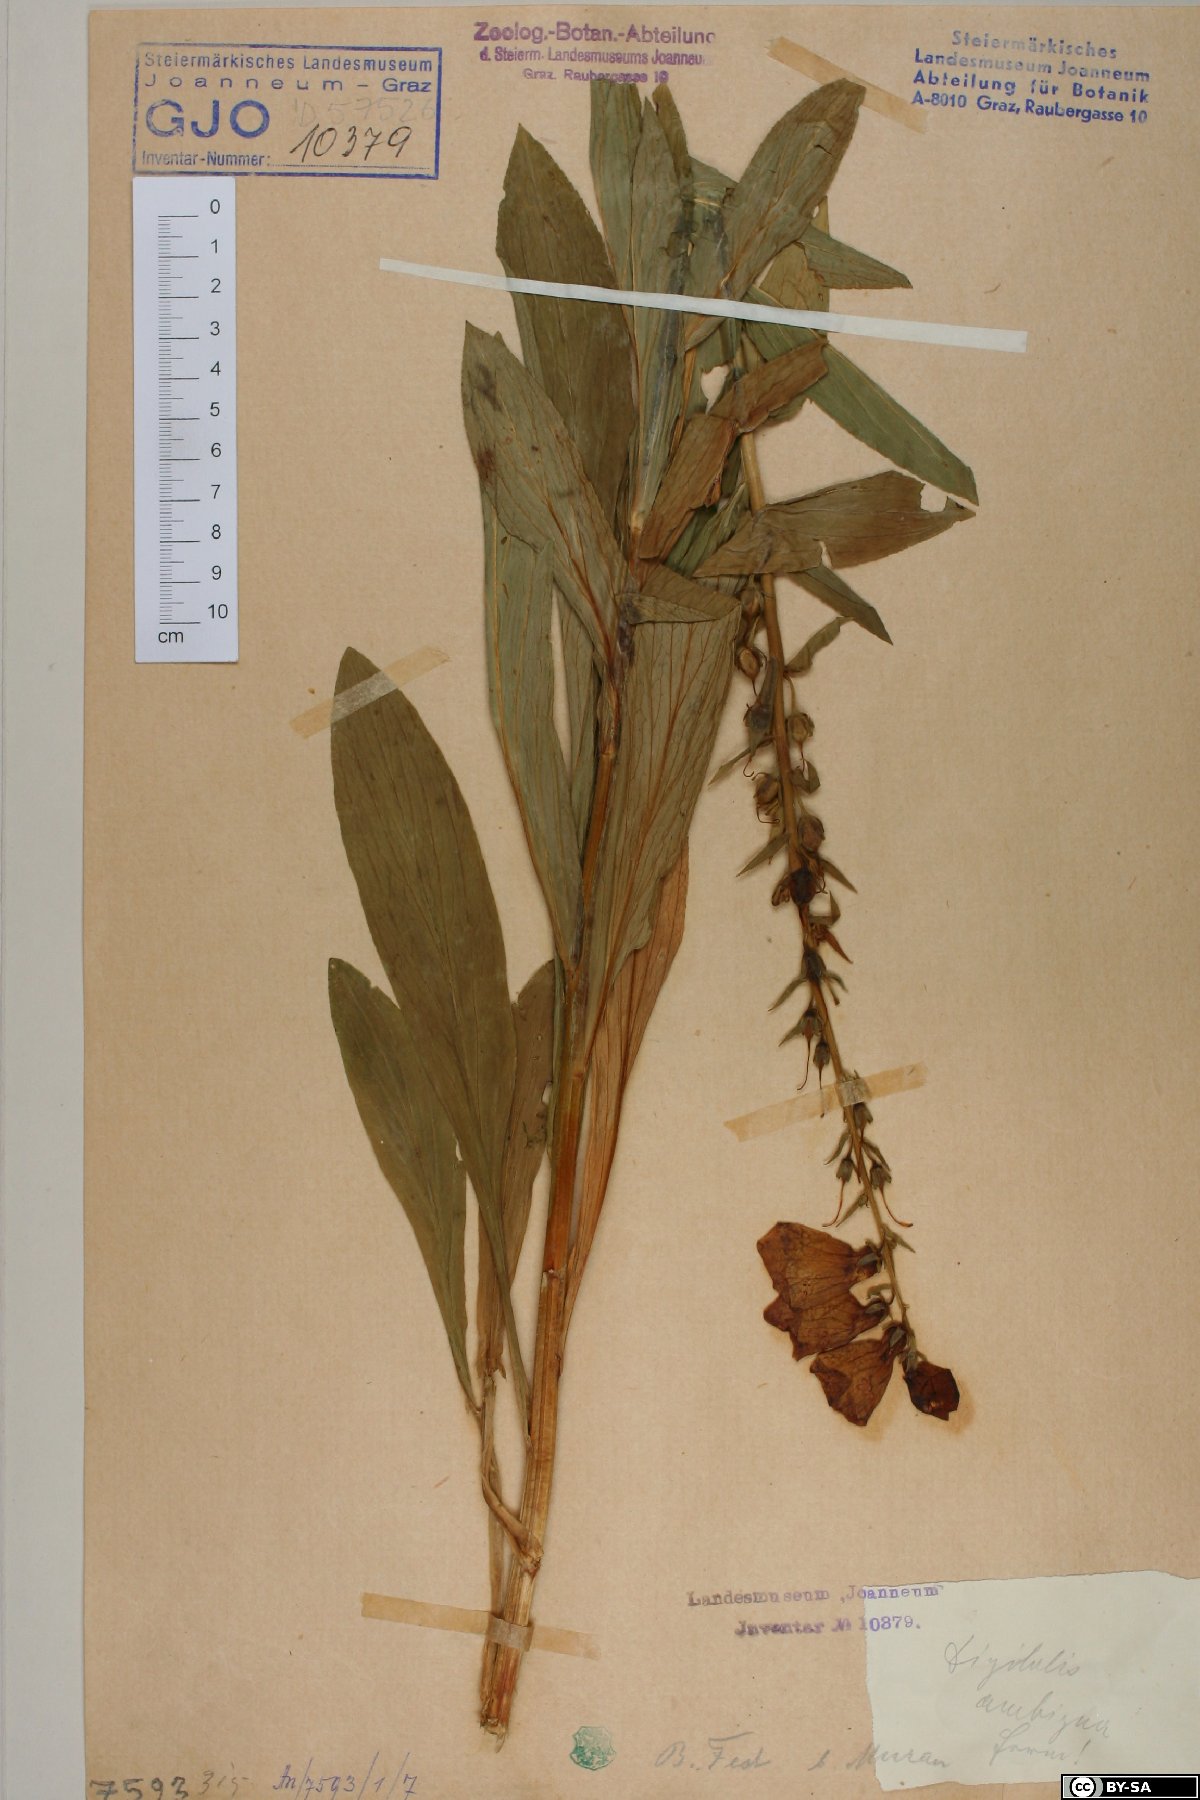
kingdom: Plantae
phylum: Tracheophyta
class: Magnoliopsida
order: Lamiales
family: Plantaginaceae
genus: Digitalis
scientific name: Digitalis grandiflora
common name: Yellow foxglove
